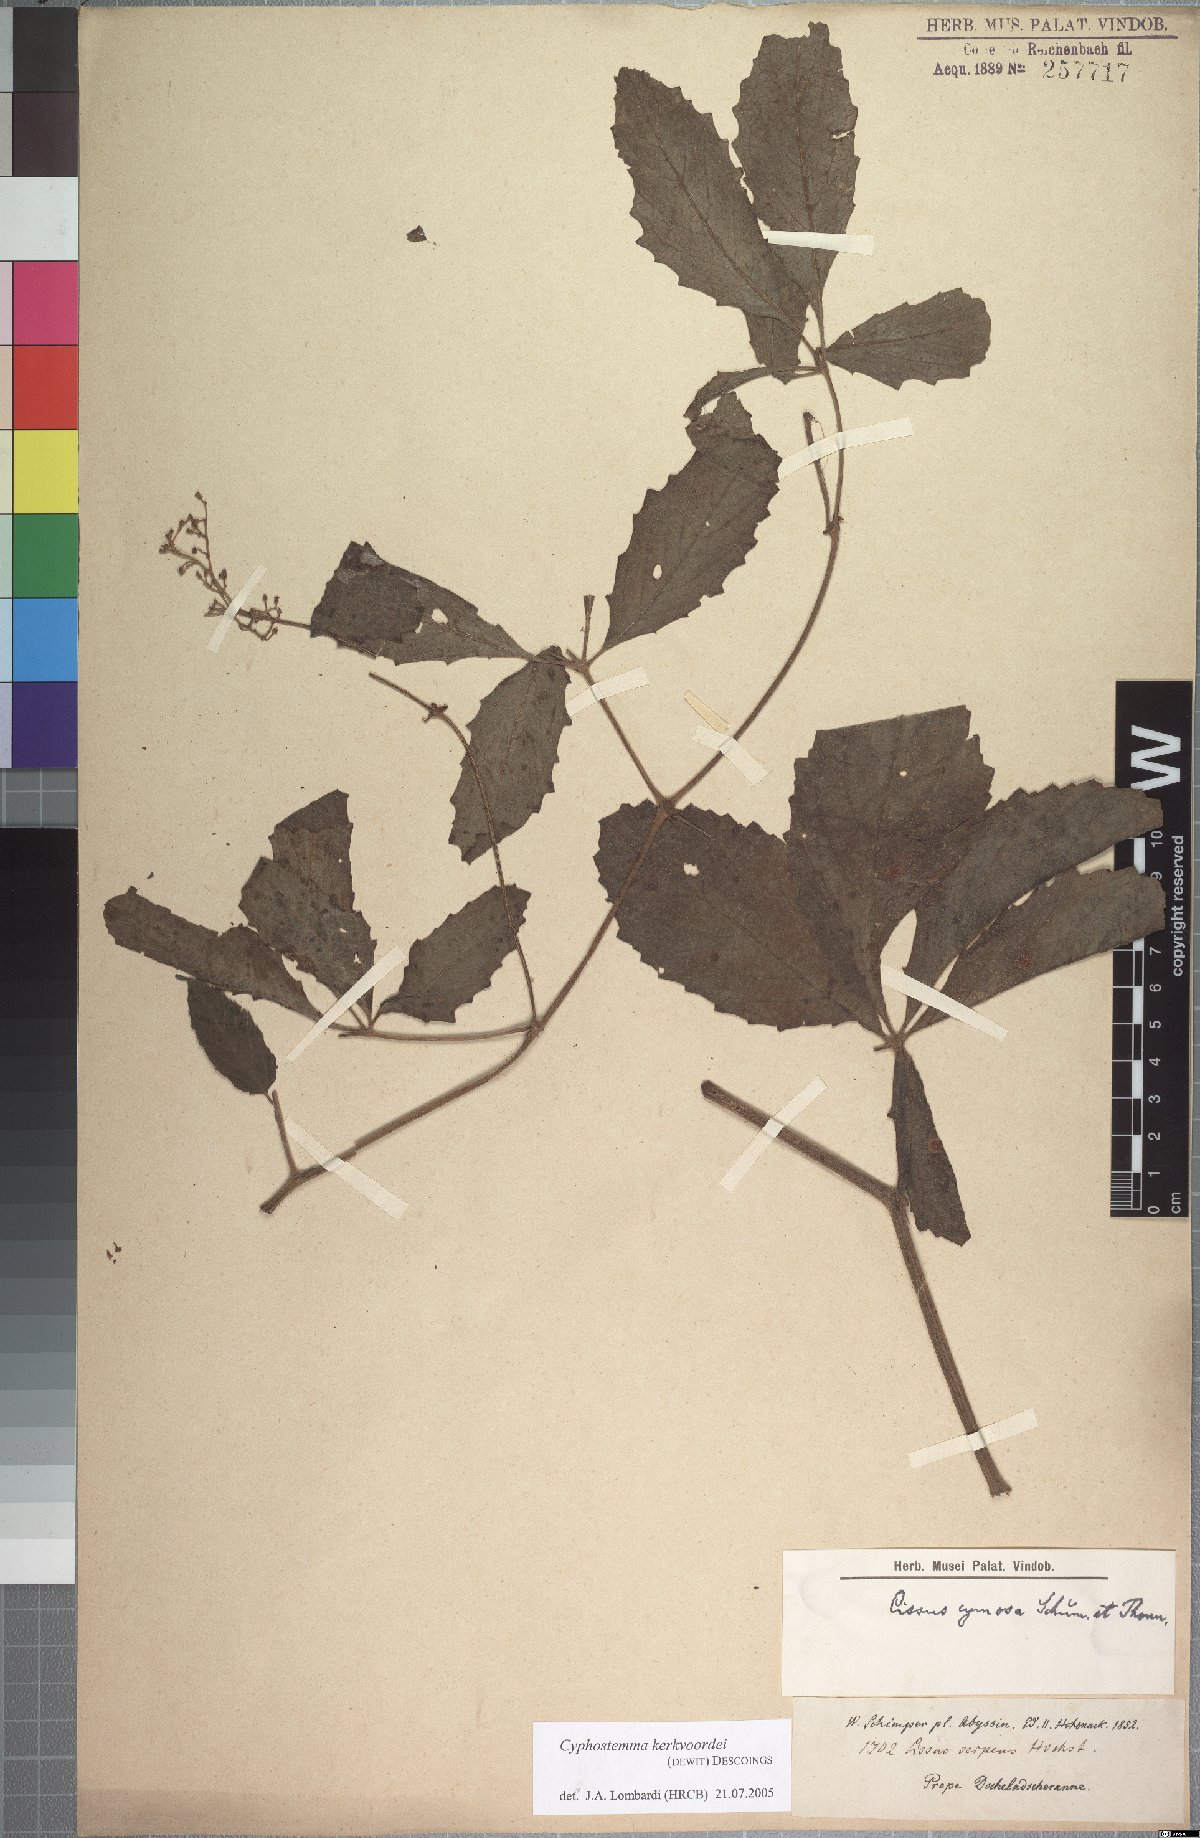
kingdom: Plantae
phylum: Tracheophyta
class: Magnoliopsida
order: Vitales
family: Vitaceae
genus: Cyphostemma
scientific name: Cyphostemma serpens
